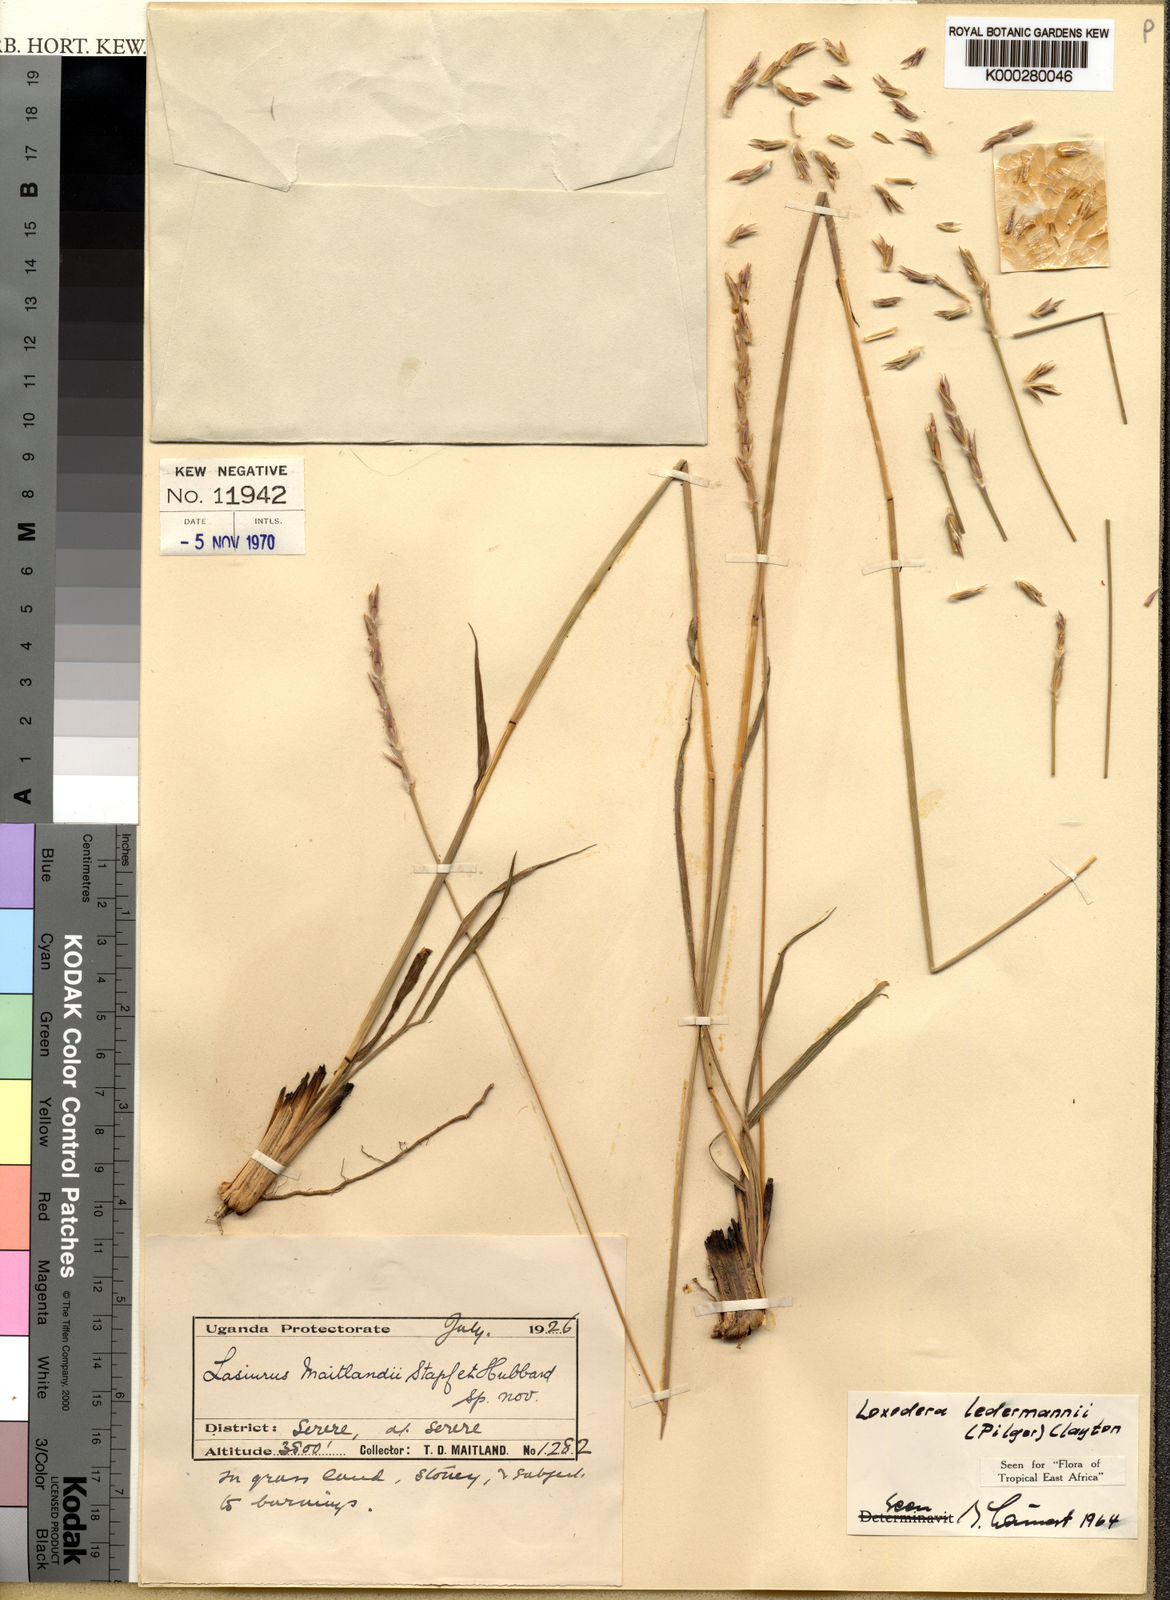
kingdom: Plantae
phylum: Tracheophyta
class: Liliopsida
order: Poales
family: Poaceae
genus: Loxodera
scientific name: Loxodera ledermannii
